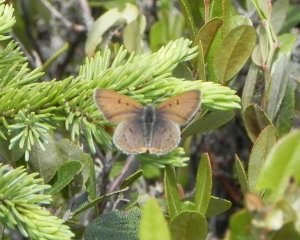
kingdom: Animalia
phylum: Arthropoda
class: Insecta
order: Lepidoptera
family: Sesiidae
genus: Sesia
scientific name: Sesia Lycaena epixanthe
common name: Bog Copper
